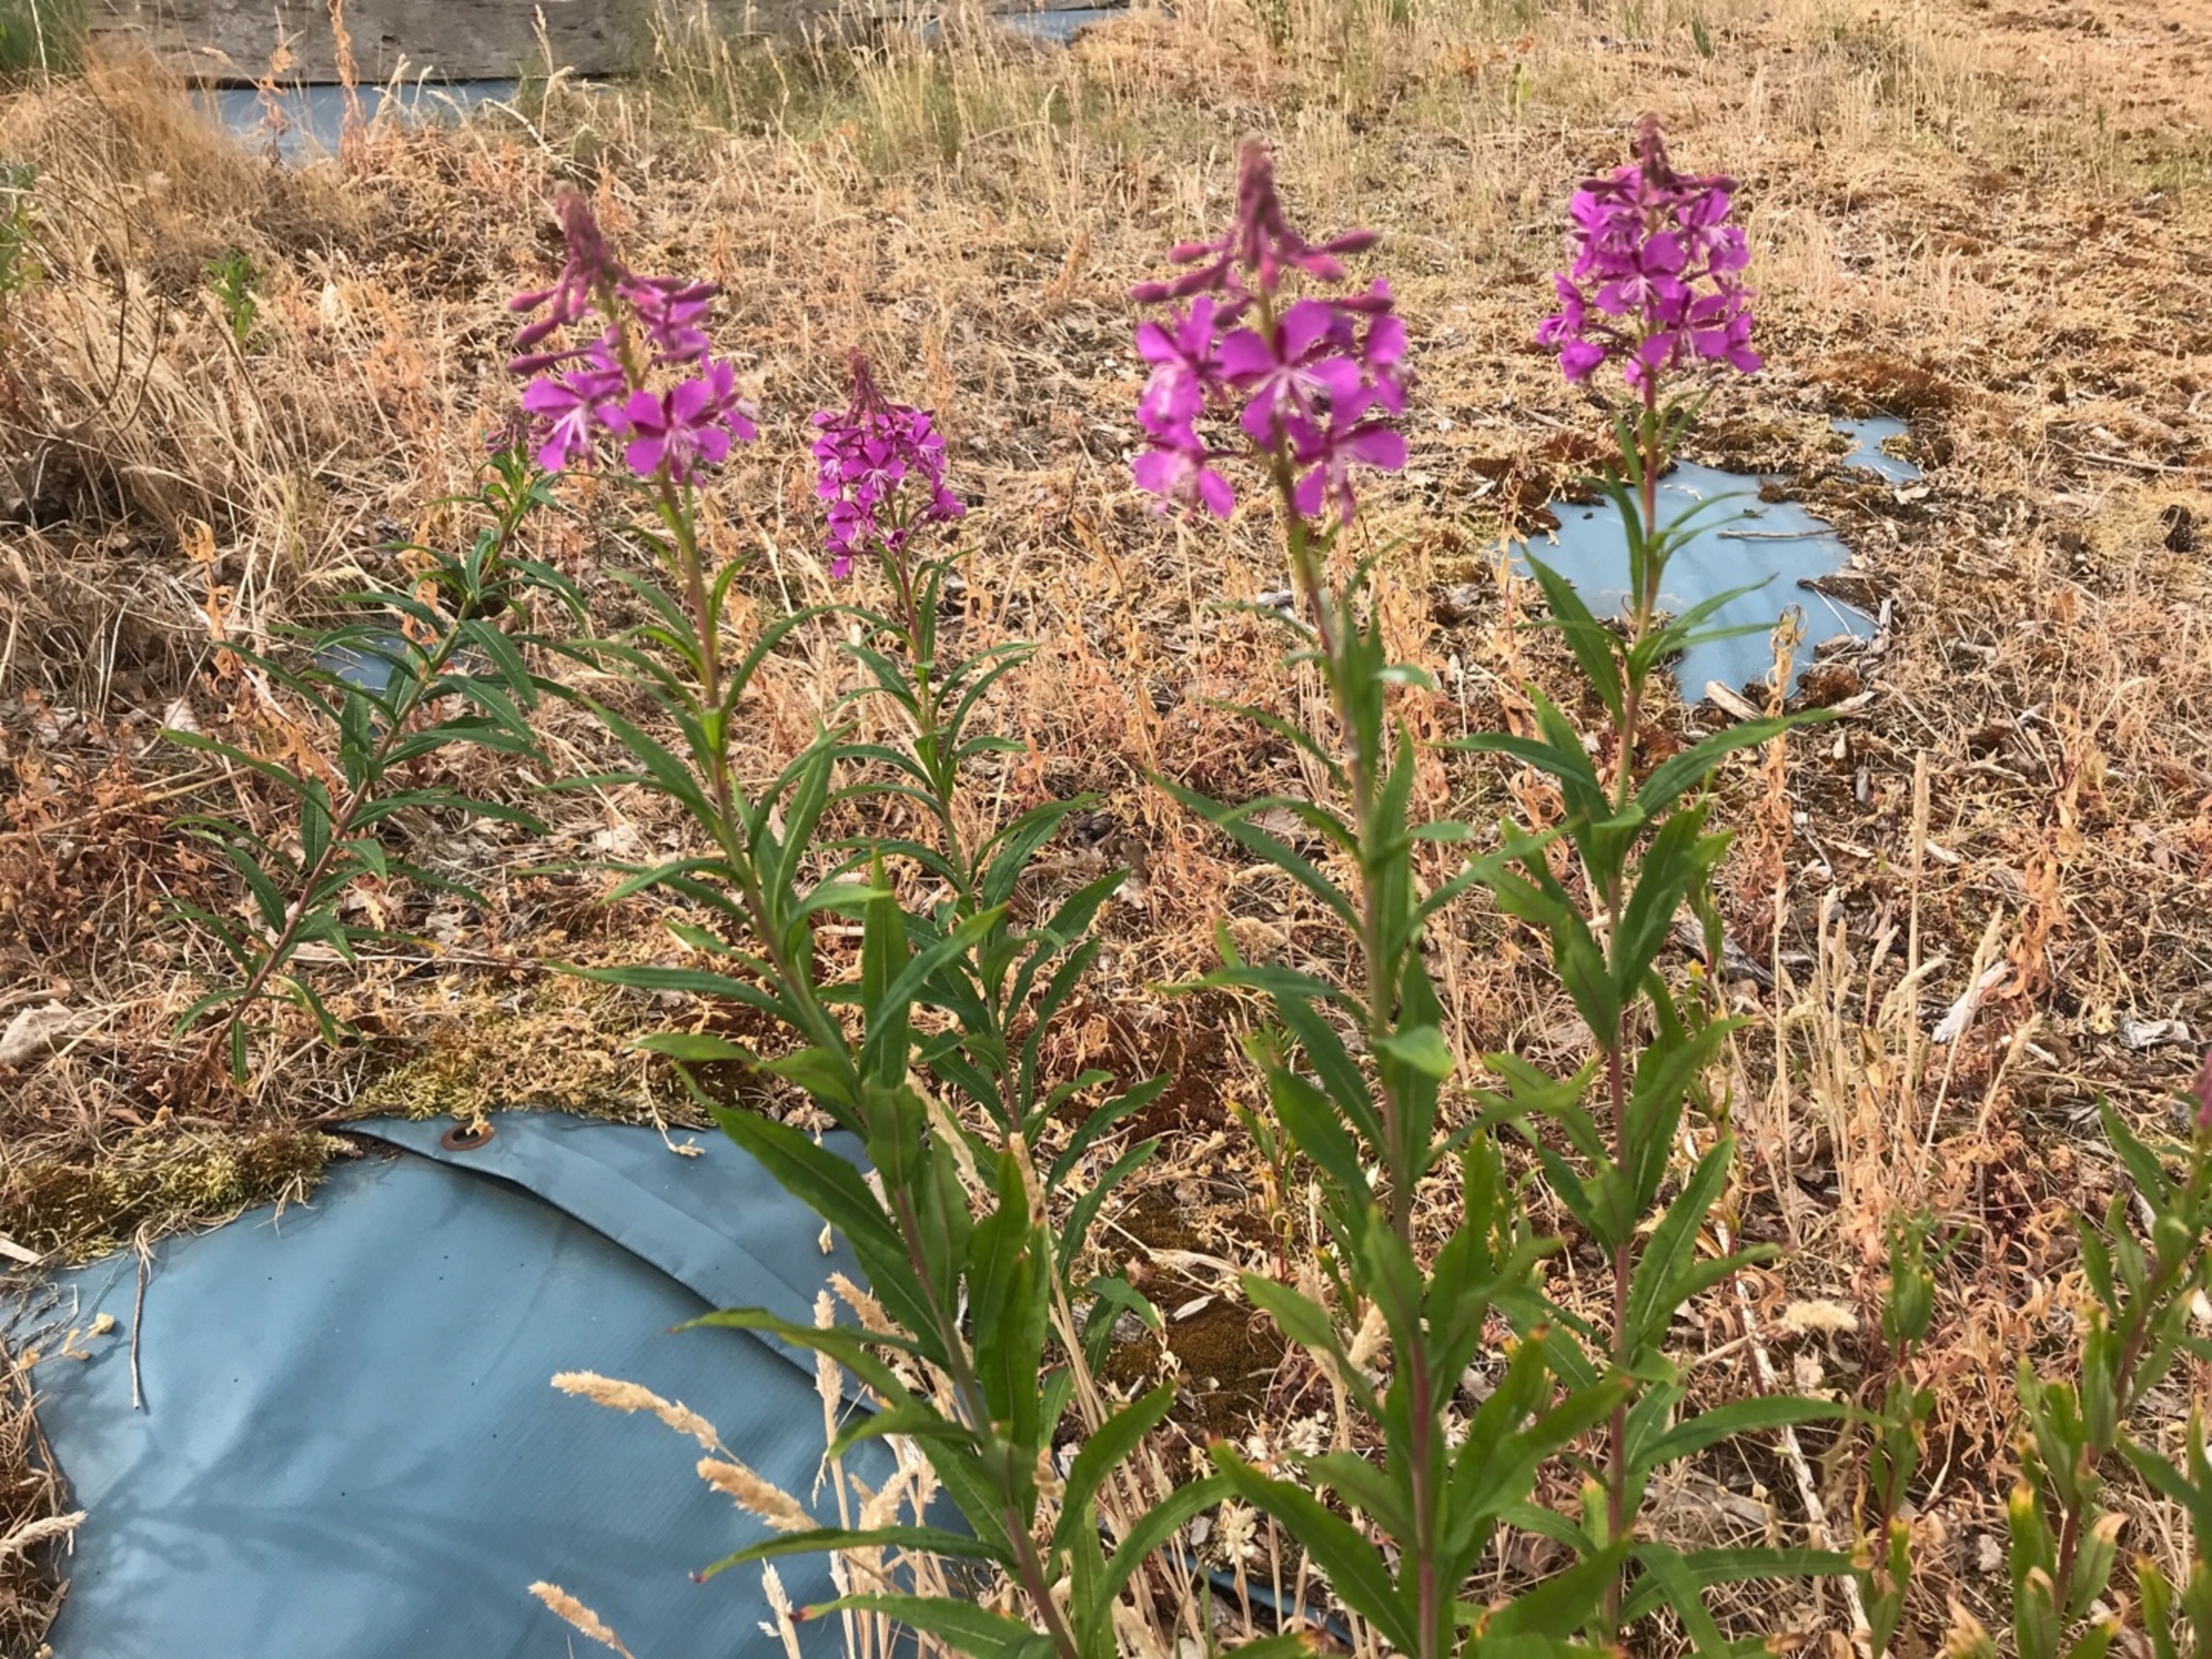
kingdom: Plantae
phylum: Tracheophyta
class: Magnoliopsida
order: Myrtales
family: Onagraceae
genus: Chamaenerion
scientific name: Chamaenerion angustifolium
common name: Gederams
